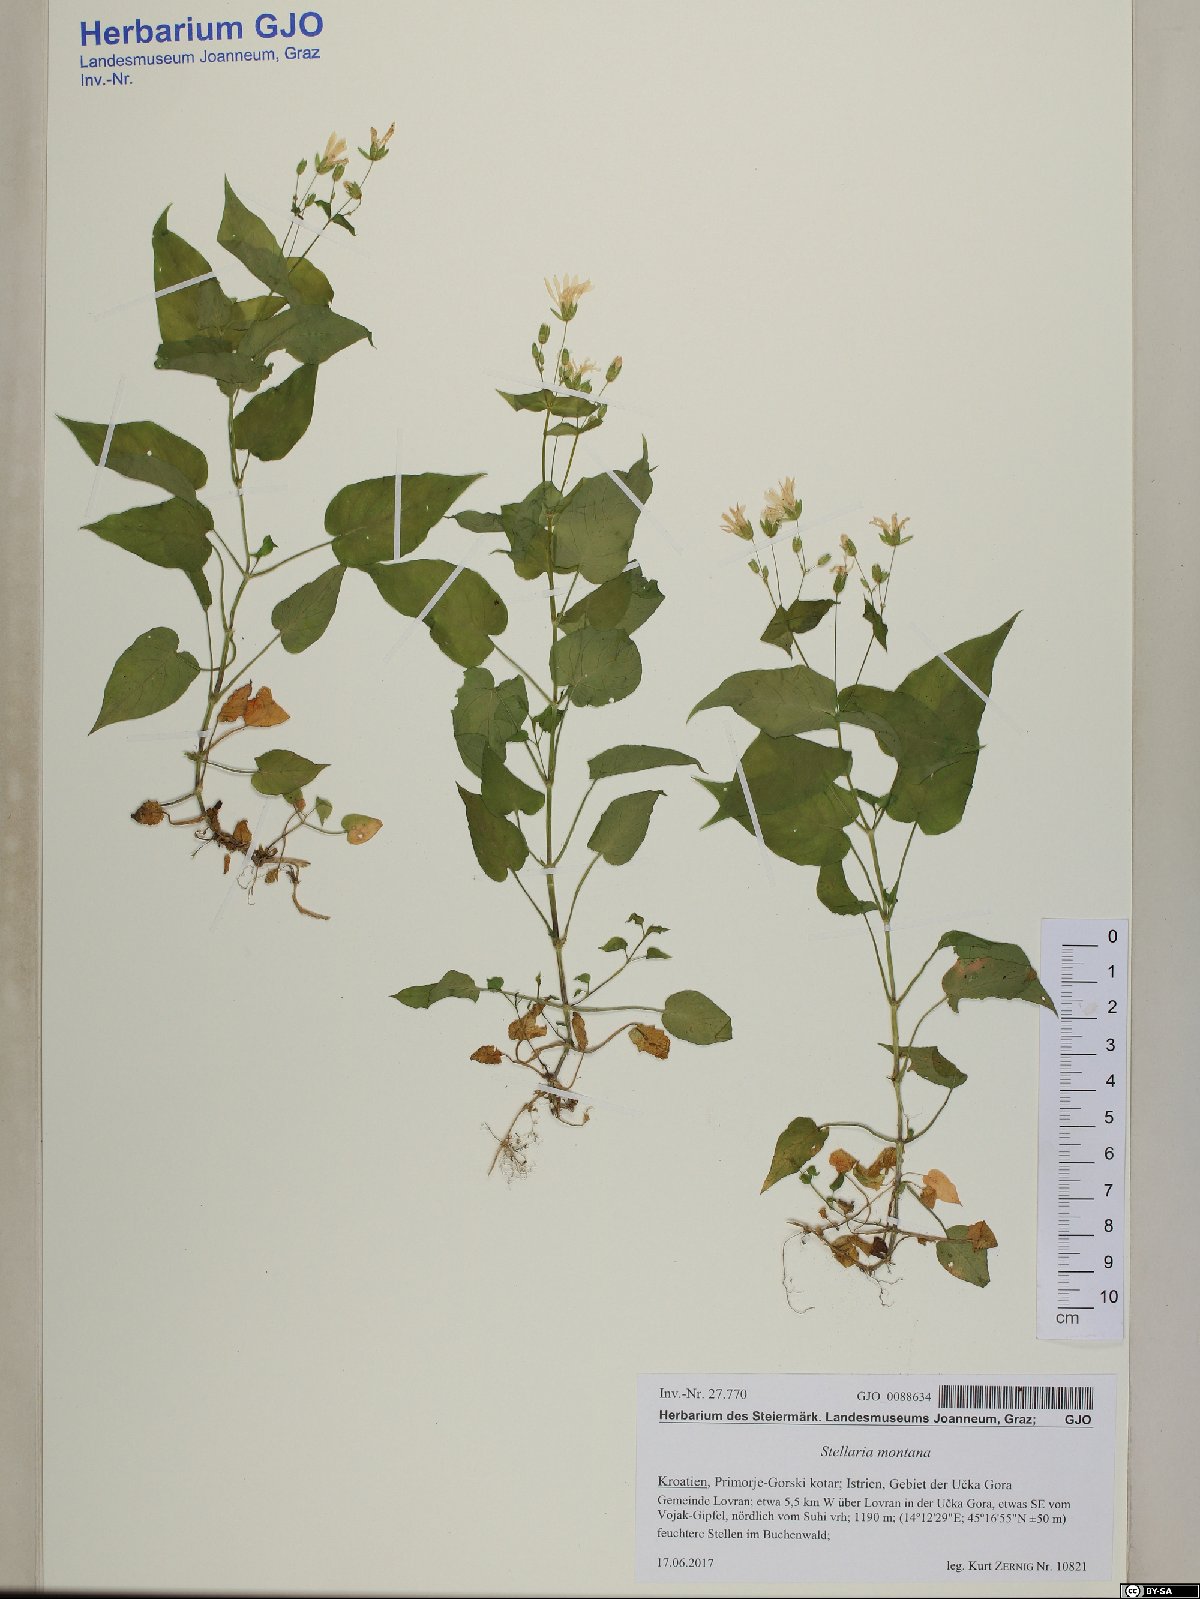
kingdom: Plantae
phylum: Tracheophyta
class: Magnoliopsida
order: Caryophyllales
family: Caryophyllaceae
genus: Stellaria
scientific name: Stellaria glochidisperma
